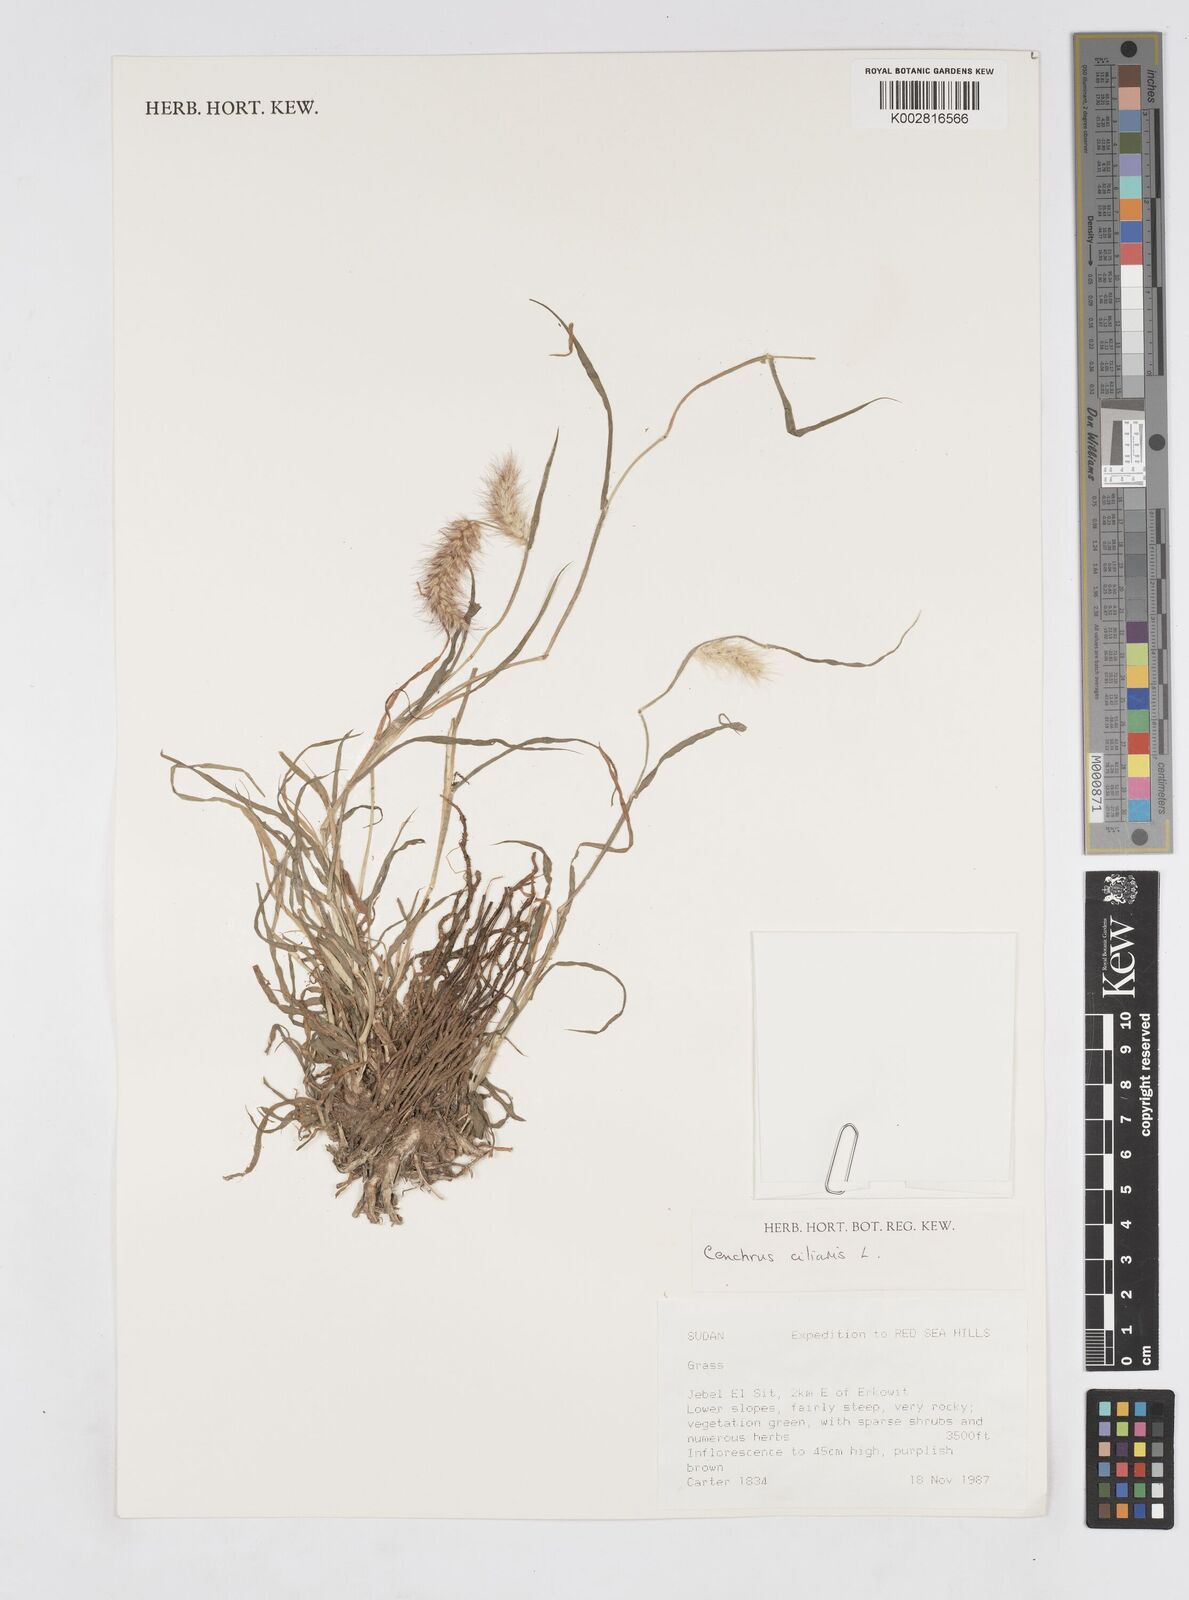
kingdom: Plantae
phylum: Tracheophyta
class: Liliopsida
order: Poales
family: Poaceae
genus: Cenchrus
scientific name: Cenchrus ciliaris
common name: Buffelgrass
